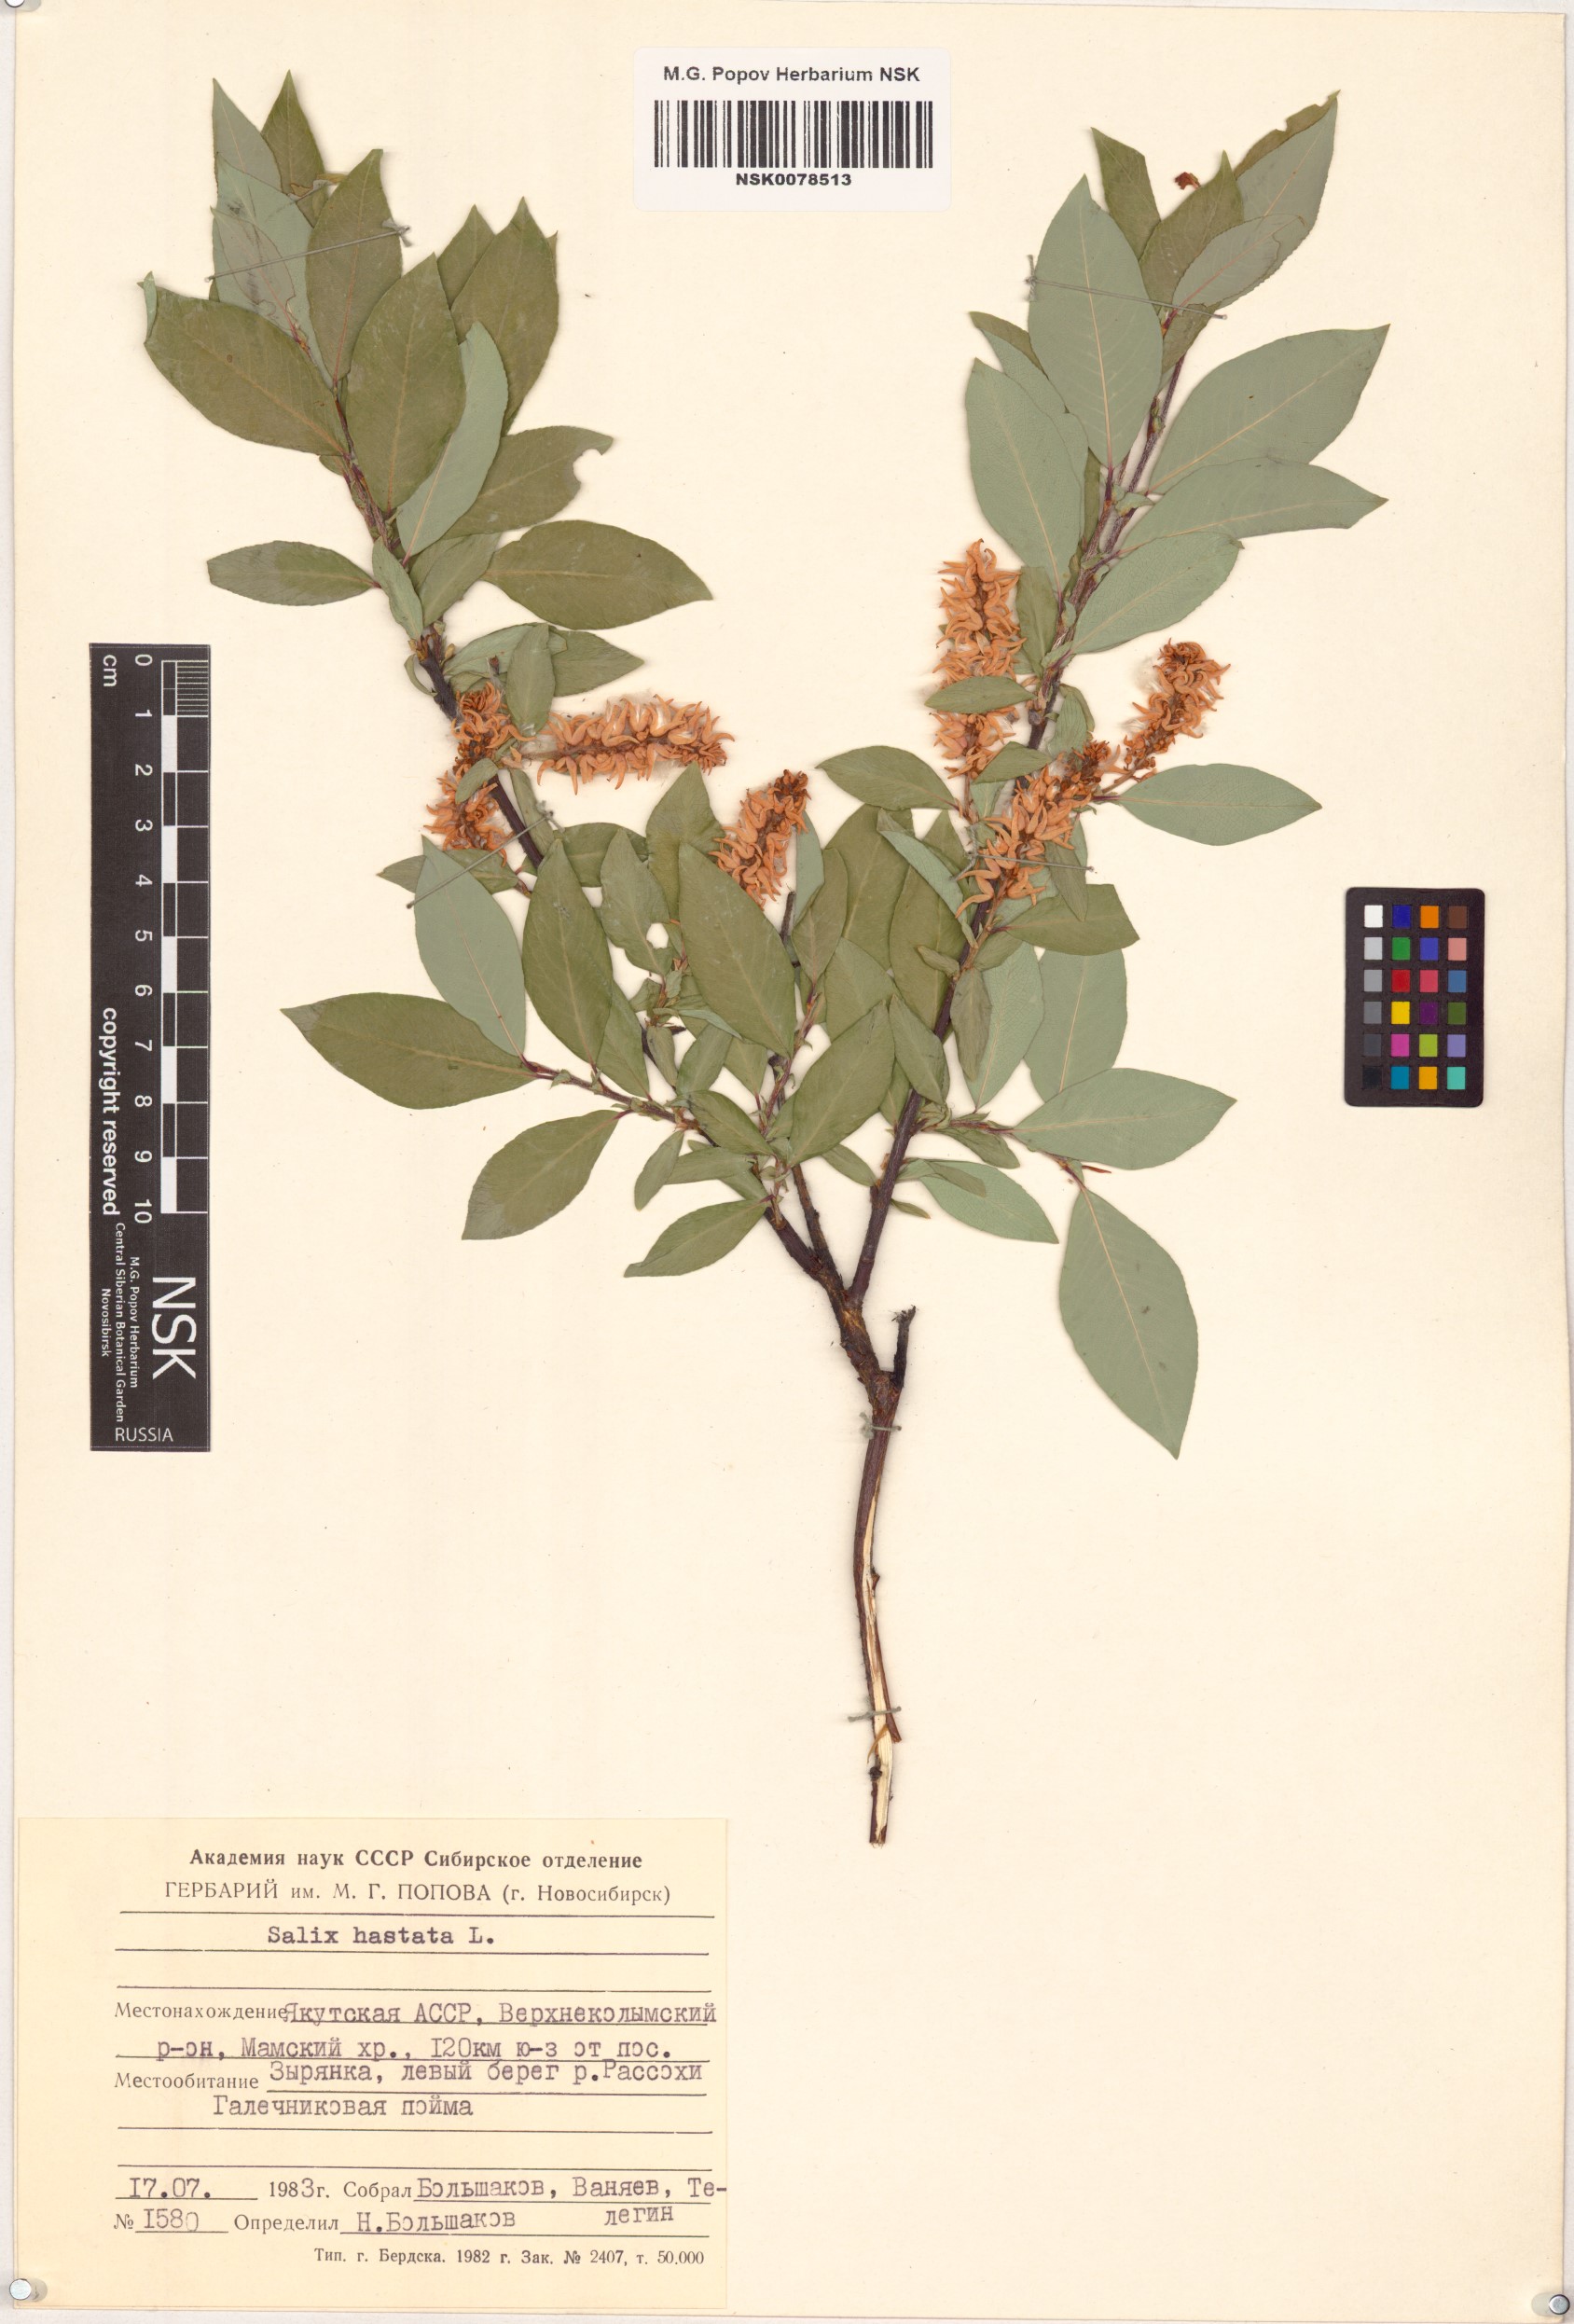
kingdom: Plantae
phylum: Tracheophyta
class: Magnoliopsida
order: Malpighiales
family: Salicaceae
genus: Salix
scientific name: Salix hastata
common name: Halberd willow
